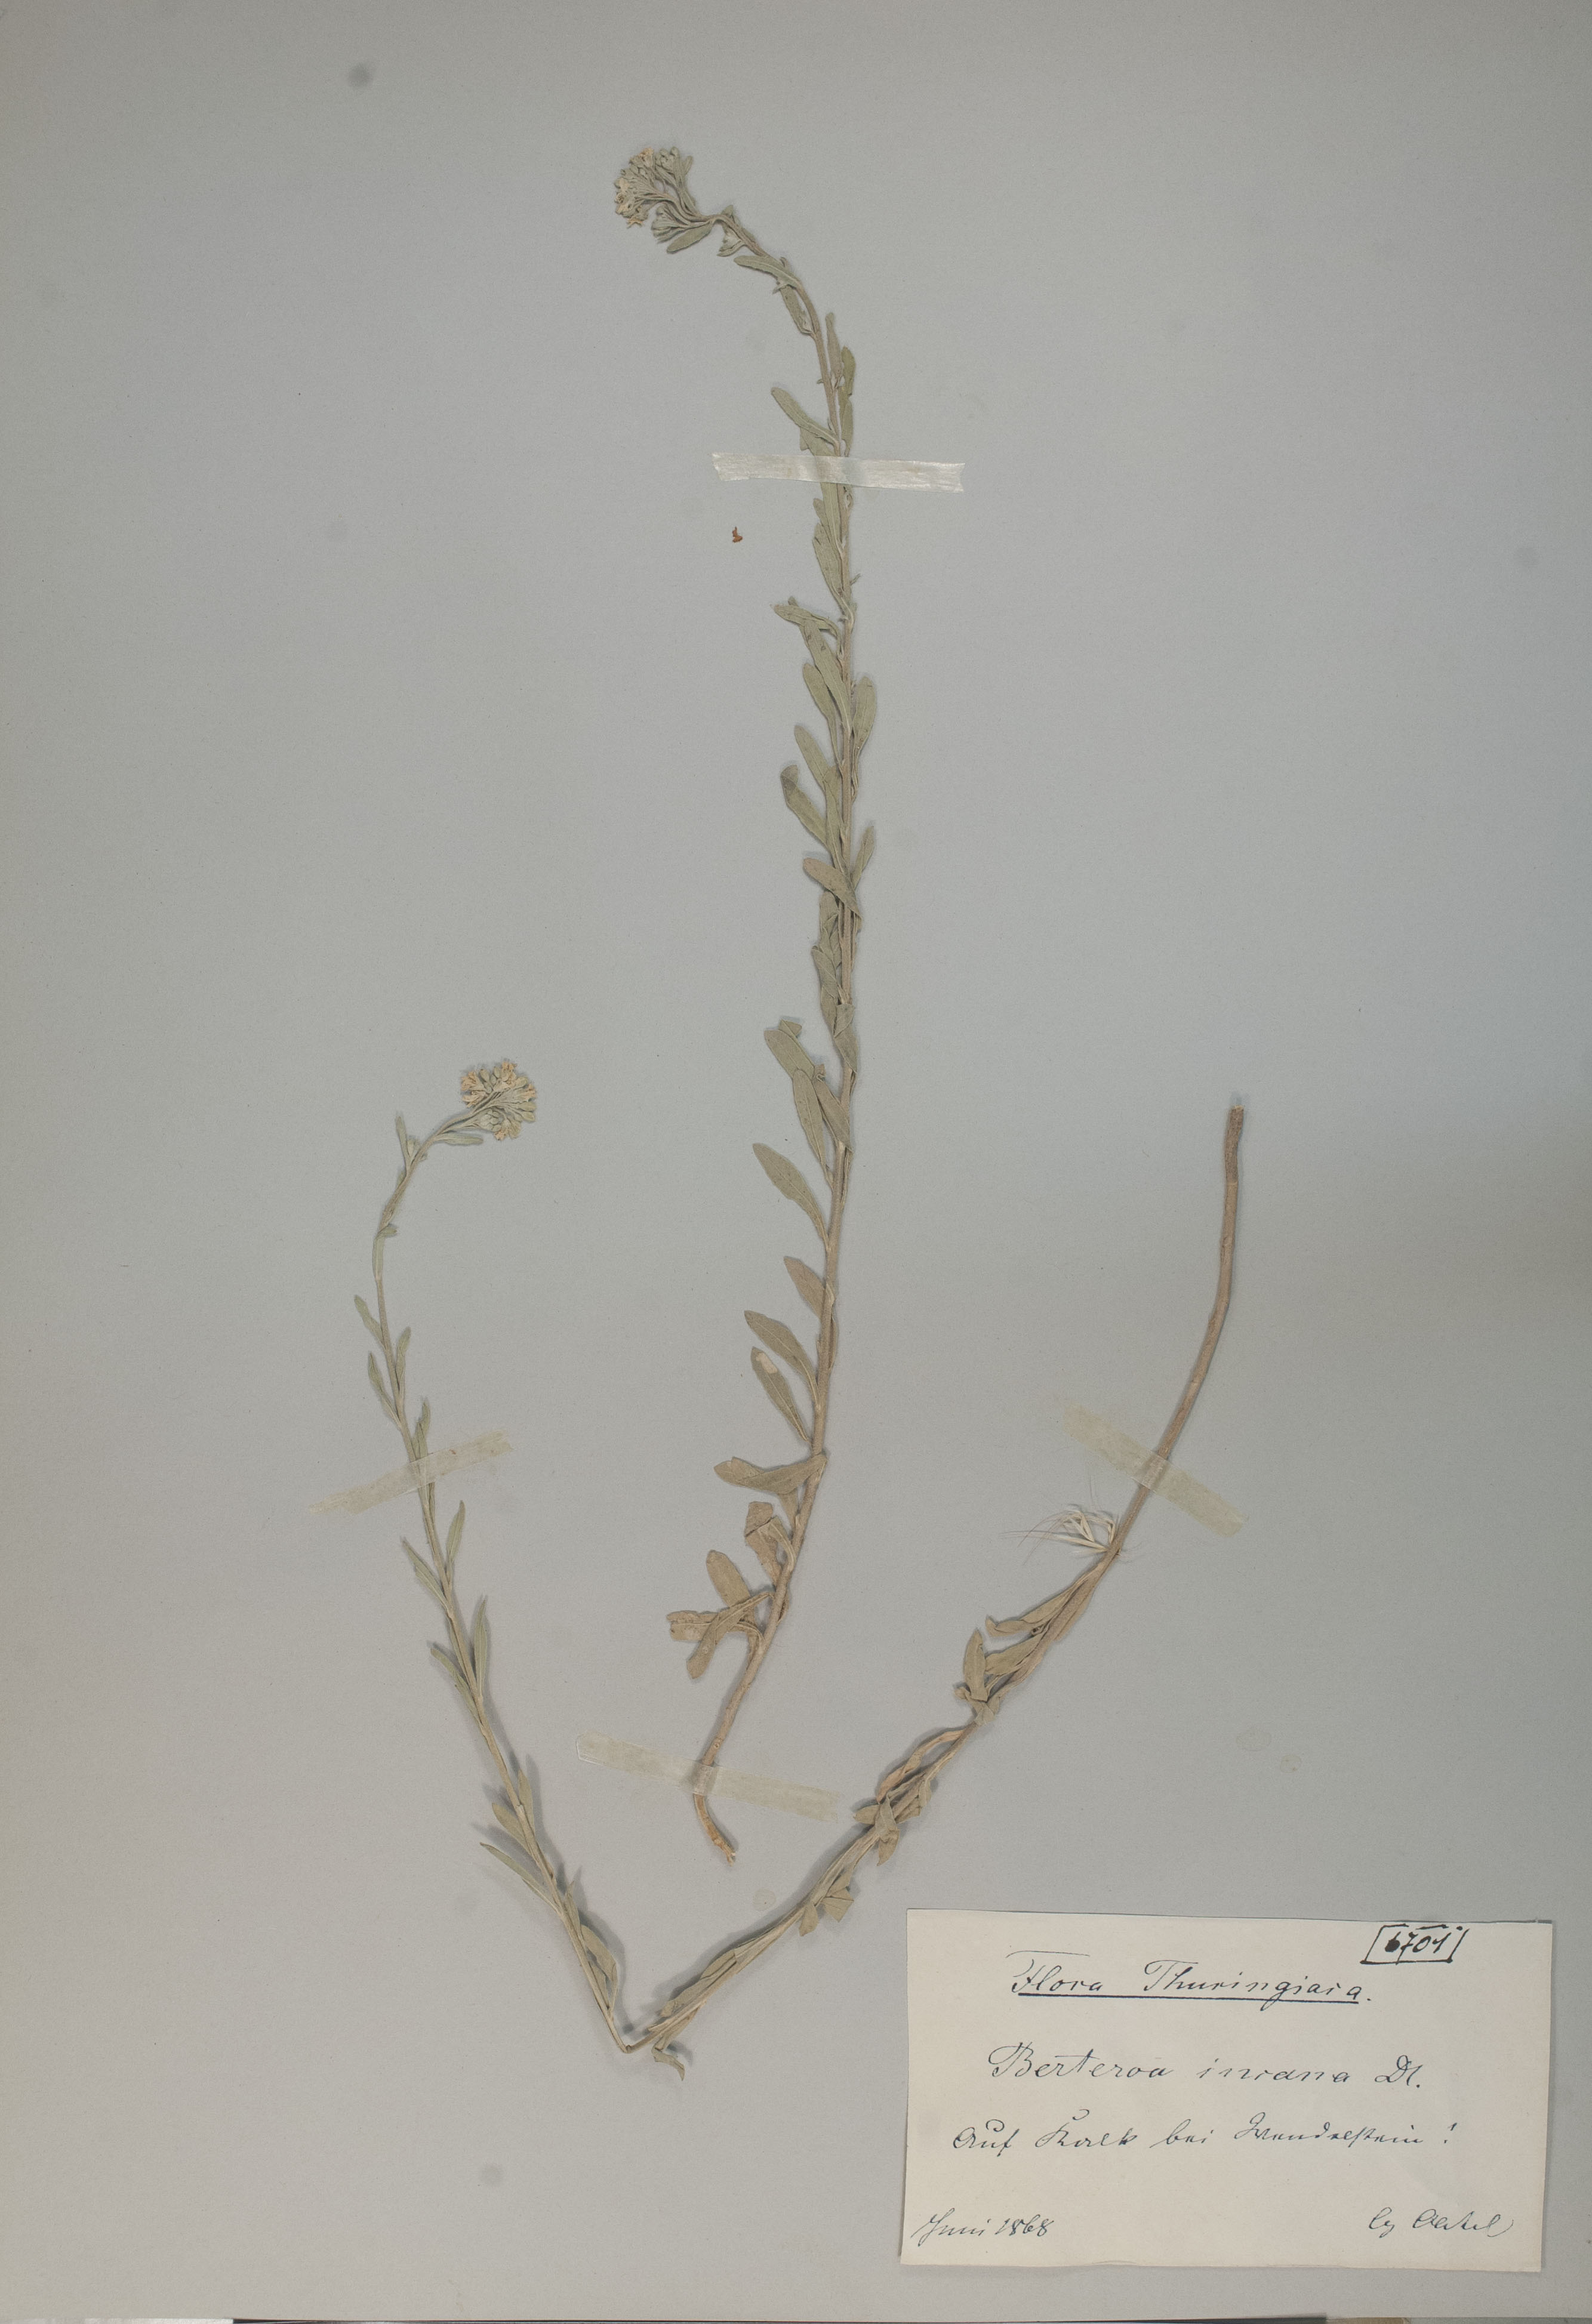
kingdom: Plantae
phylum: Tracheophyta
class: Magnoliopsida
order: Brassicales
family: Brassicaceae
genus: Berteroa
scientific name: Berteroa incana
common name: Hoary alison
